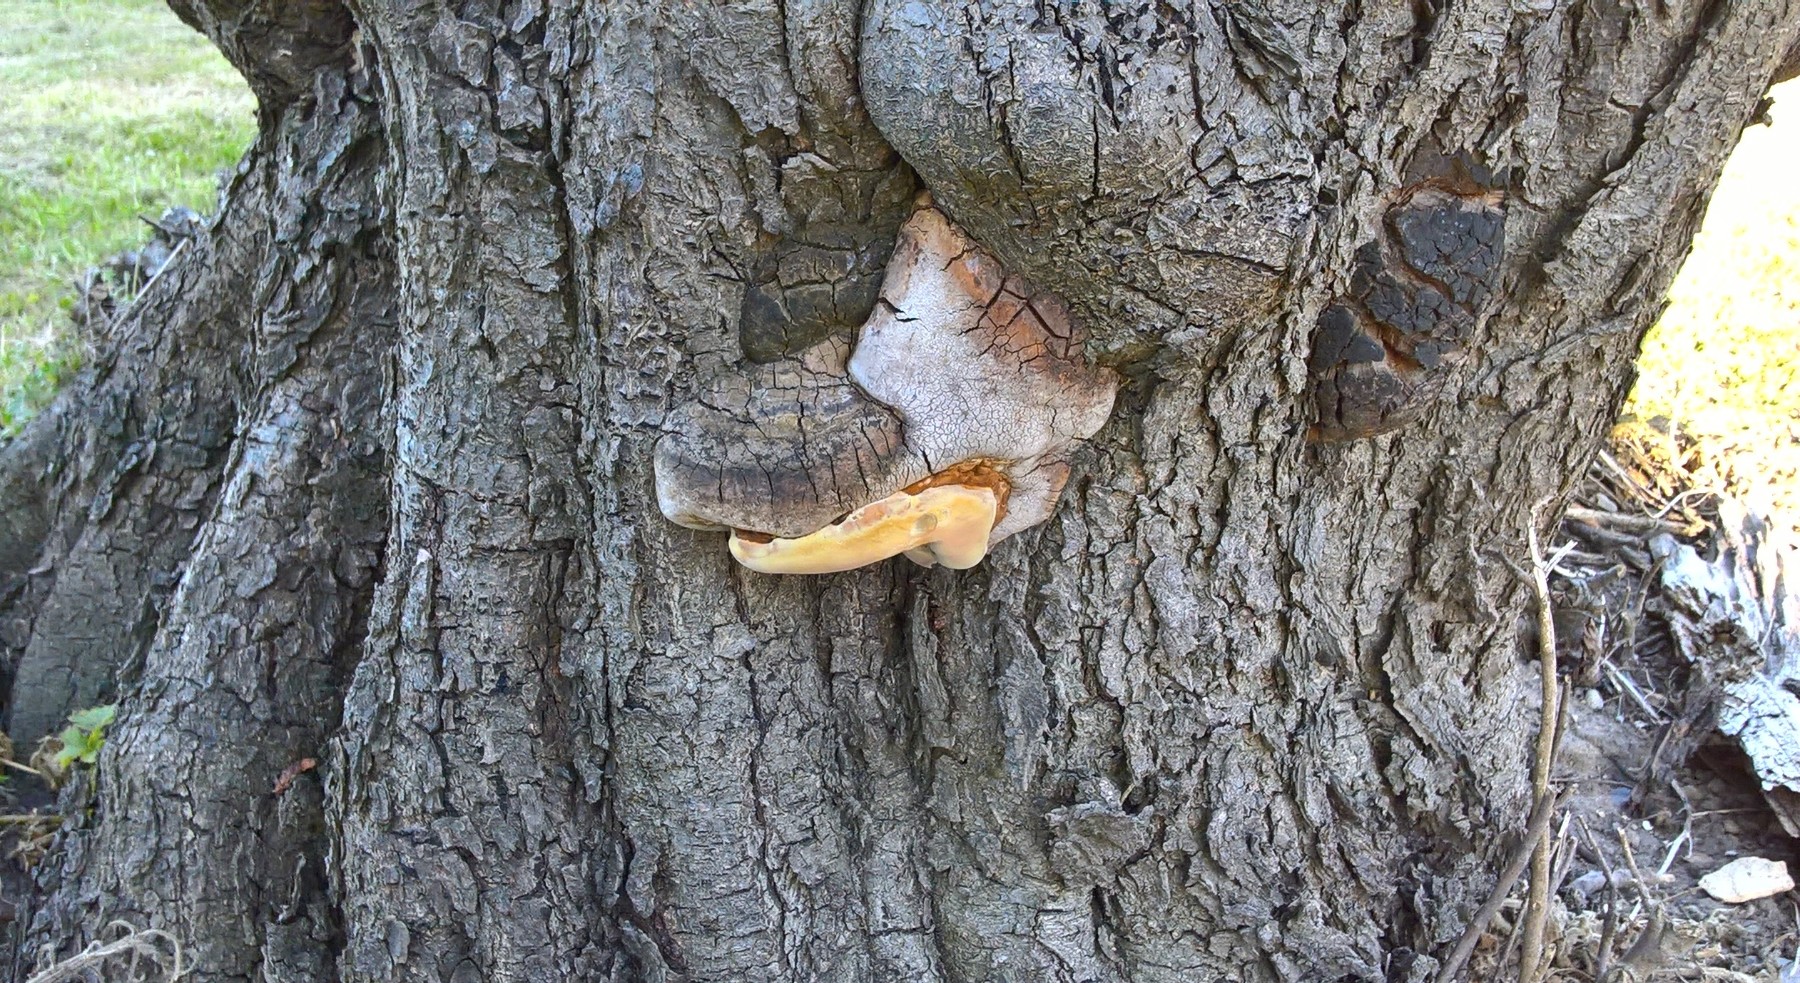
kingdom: Fungi
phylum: Basidiomycota
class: Agaricomycetes
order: Polyporales
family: Polyporaceae
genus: Ganoderma
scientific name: Ganoderma adspersum
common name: grov lakporesvamp
